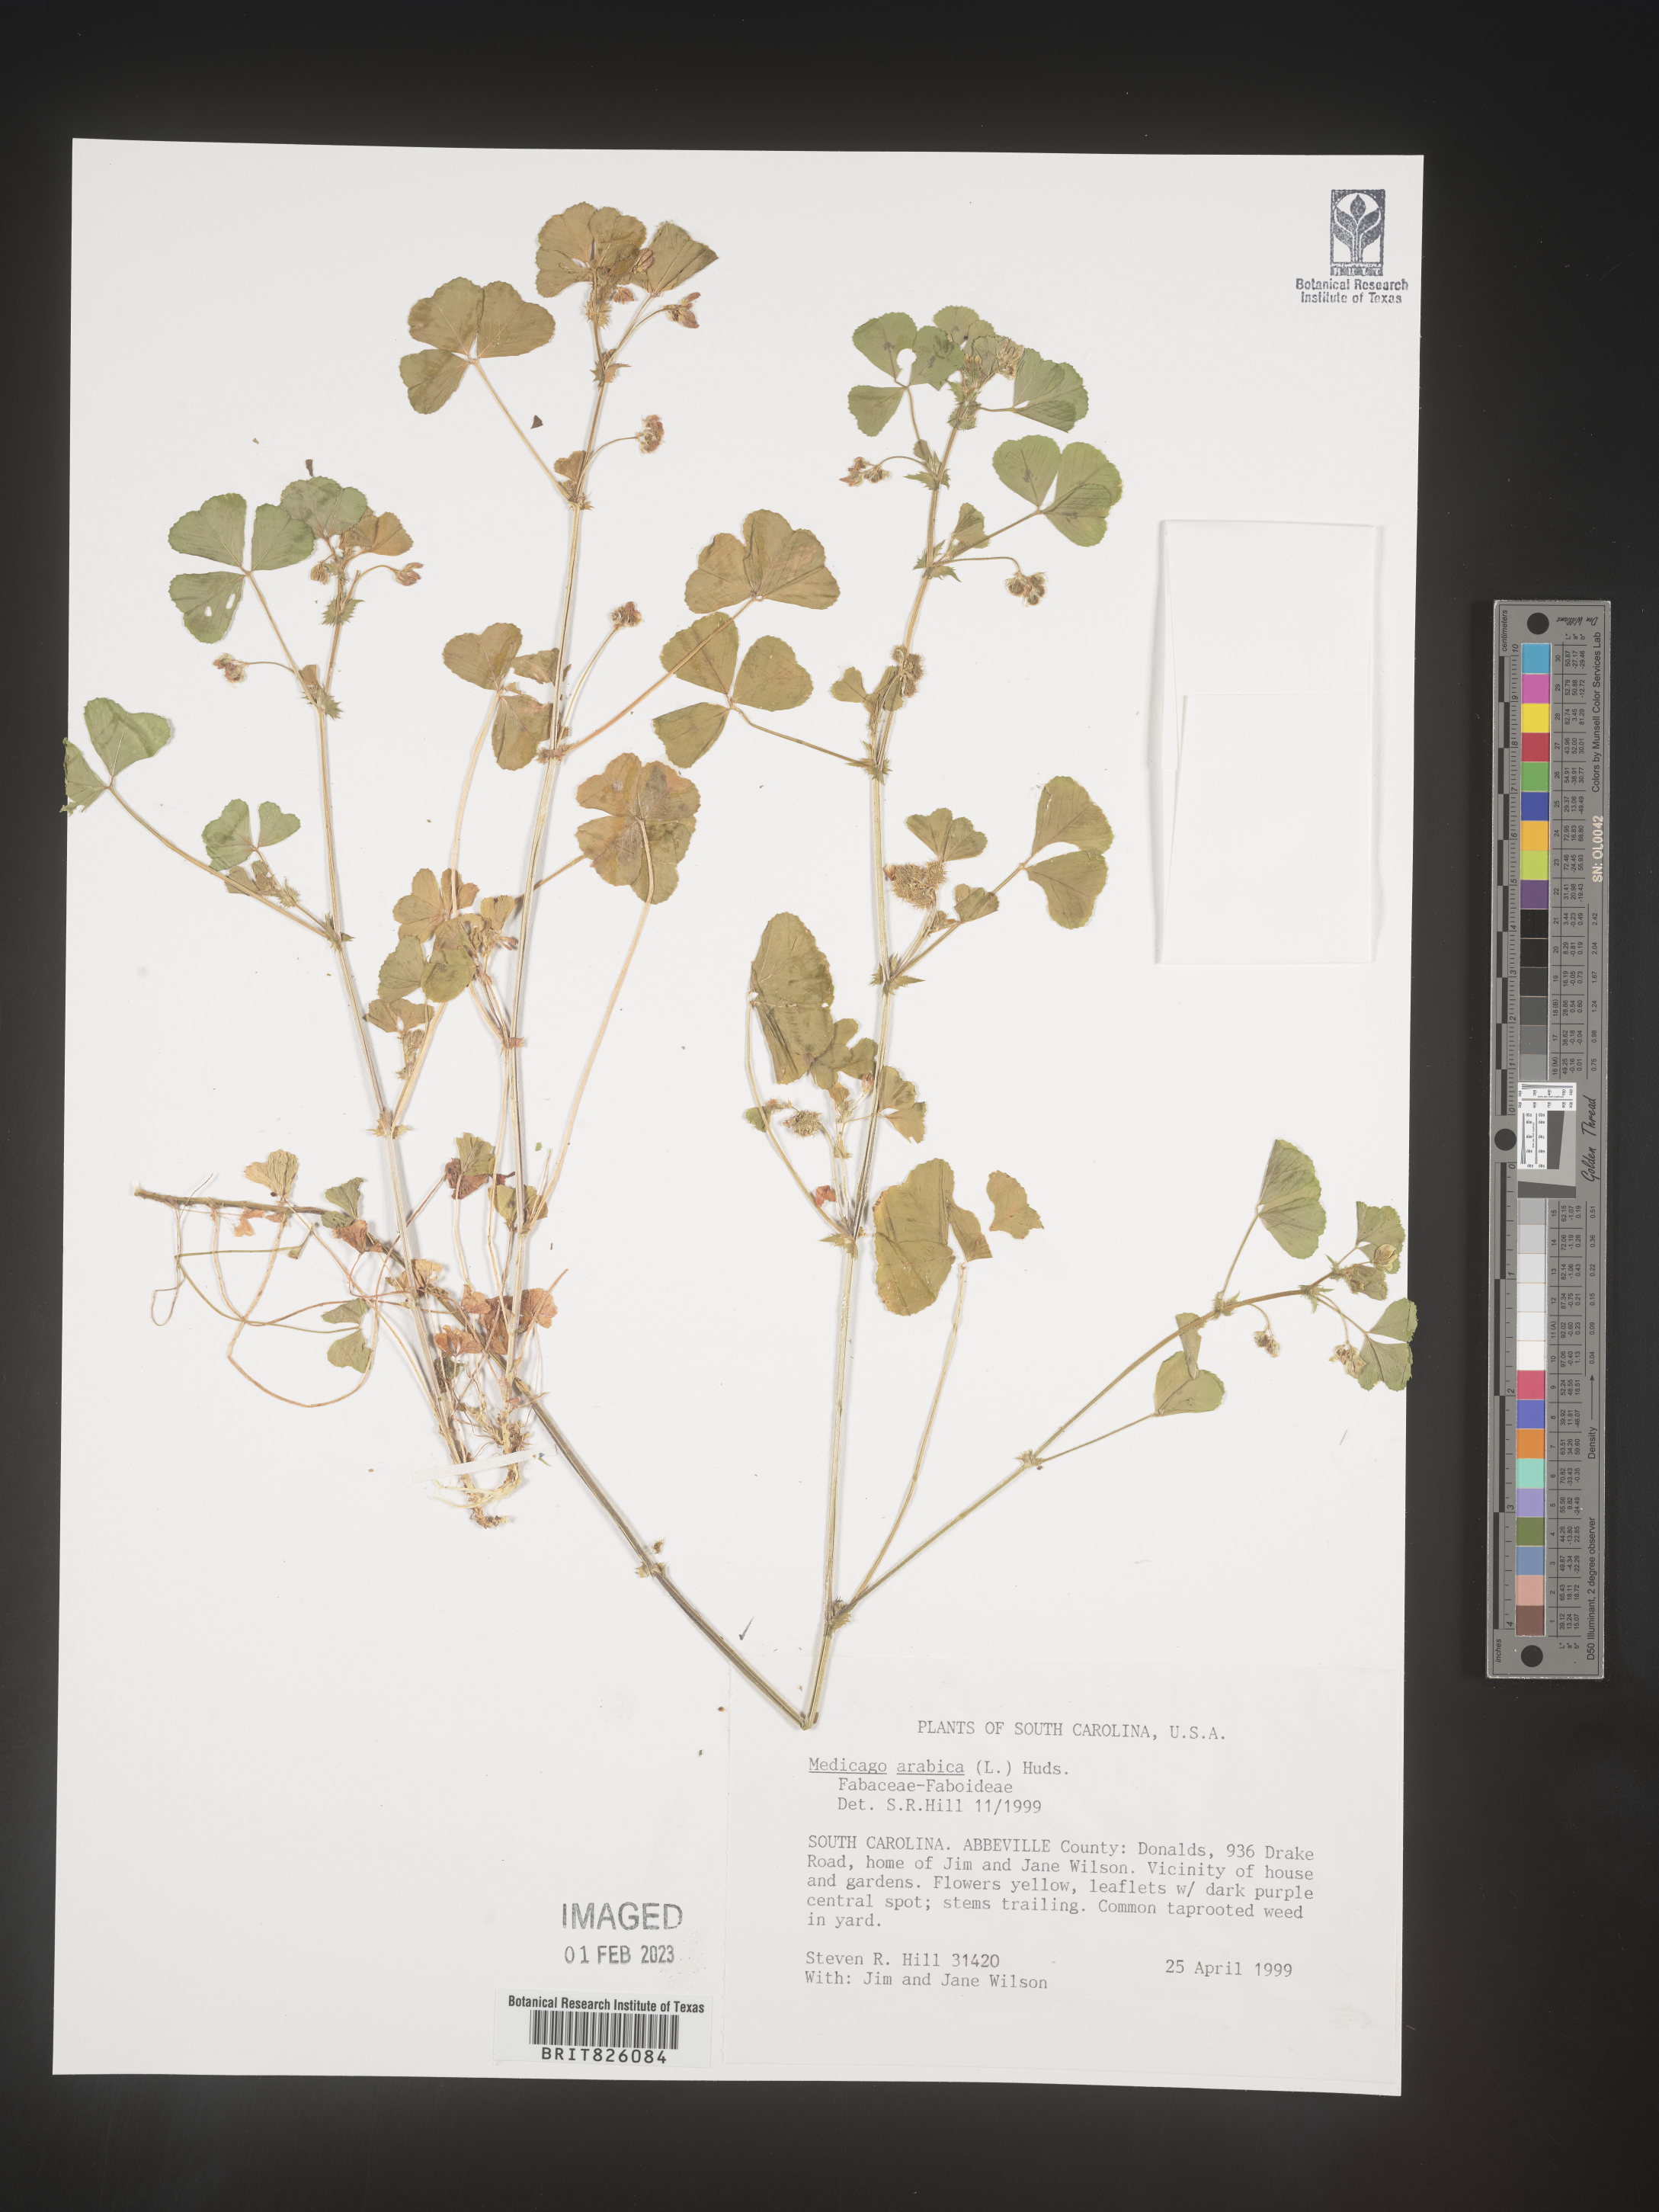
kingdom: Plantae
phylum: Tracheophyta
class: Magnoliopsida
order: Fabales
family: Fabaceae
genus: Medicago
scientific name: Medicago arabica
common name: Spotted medick
